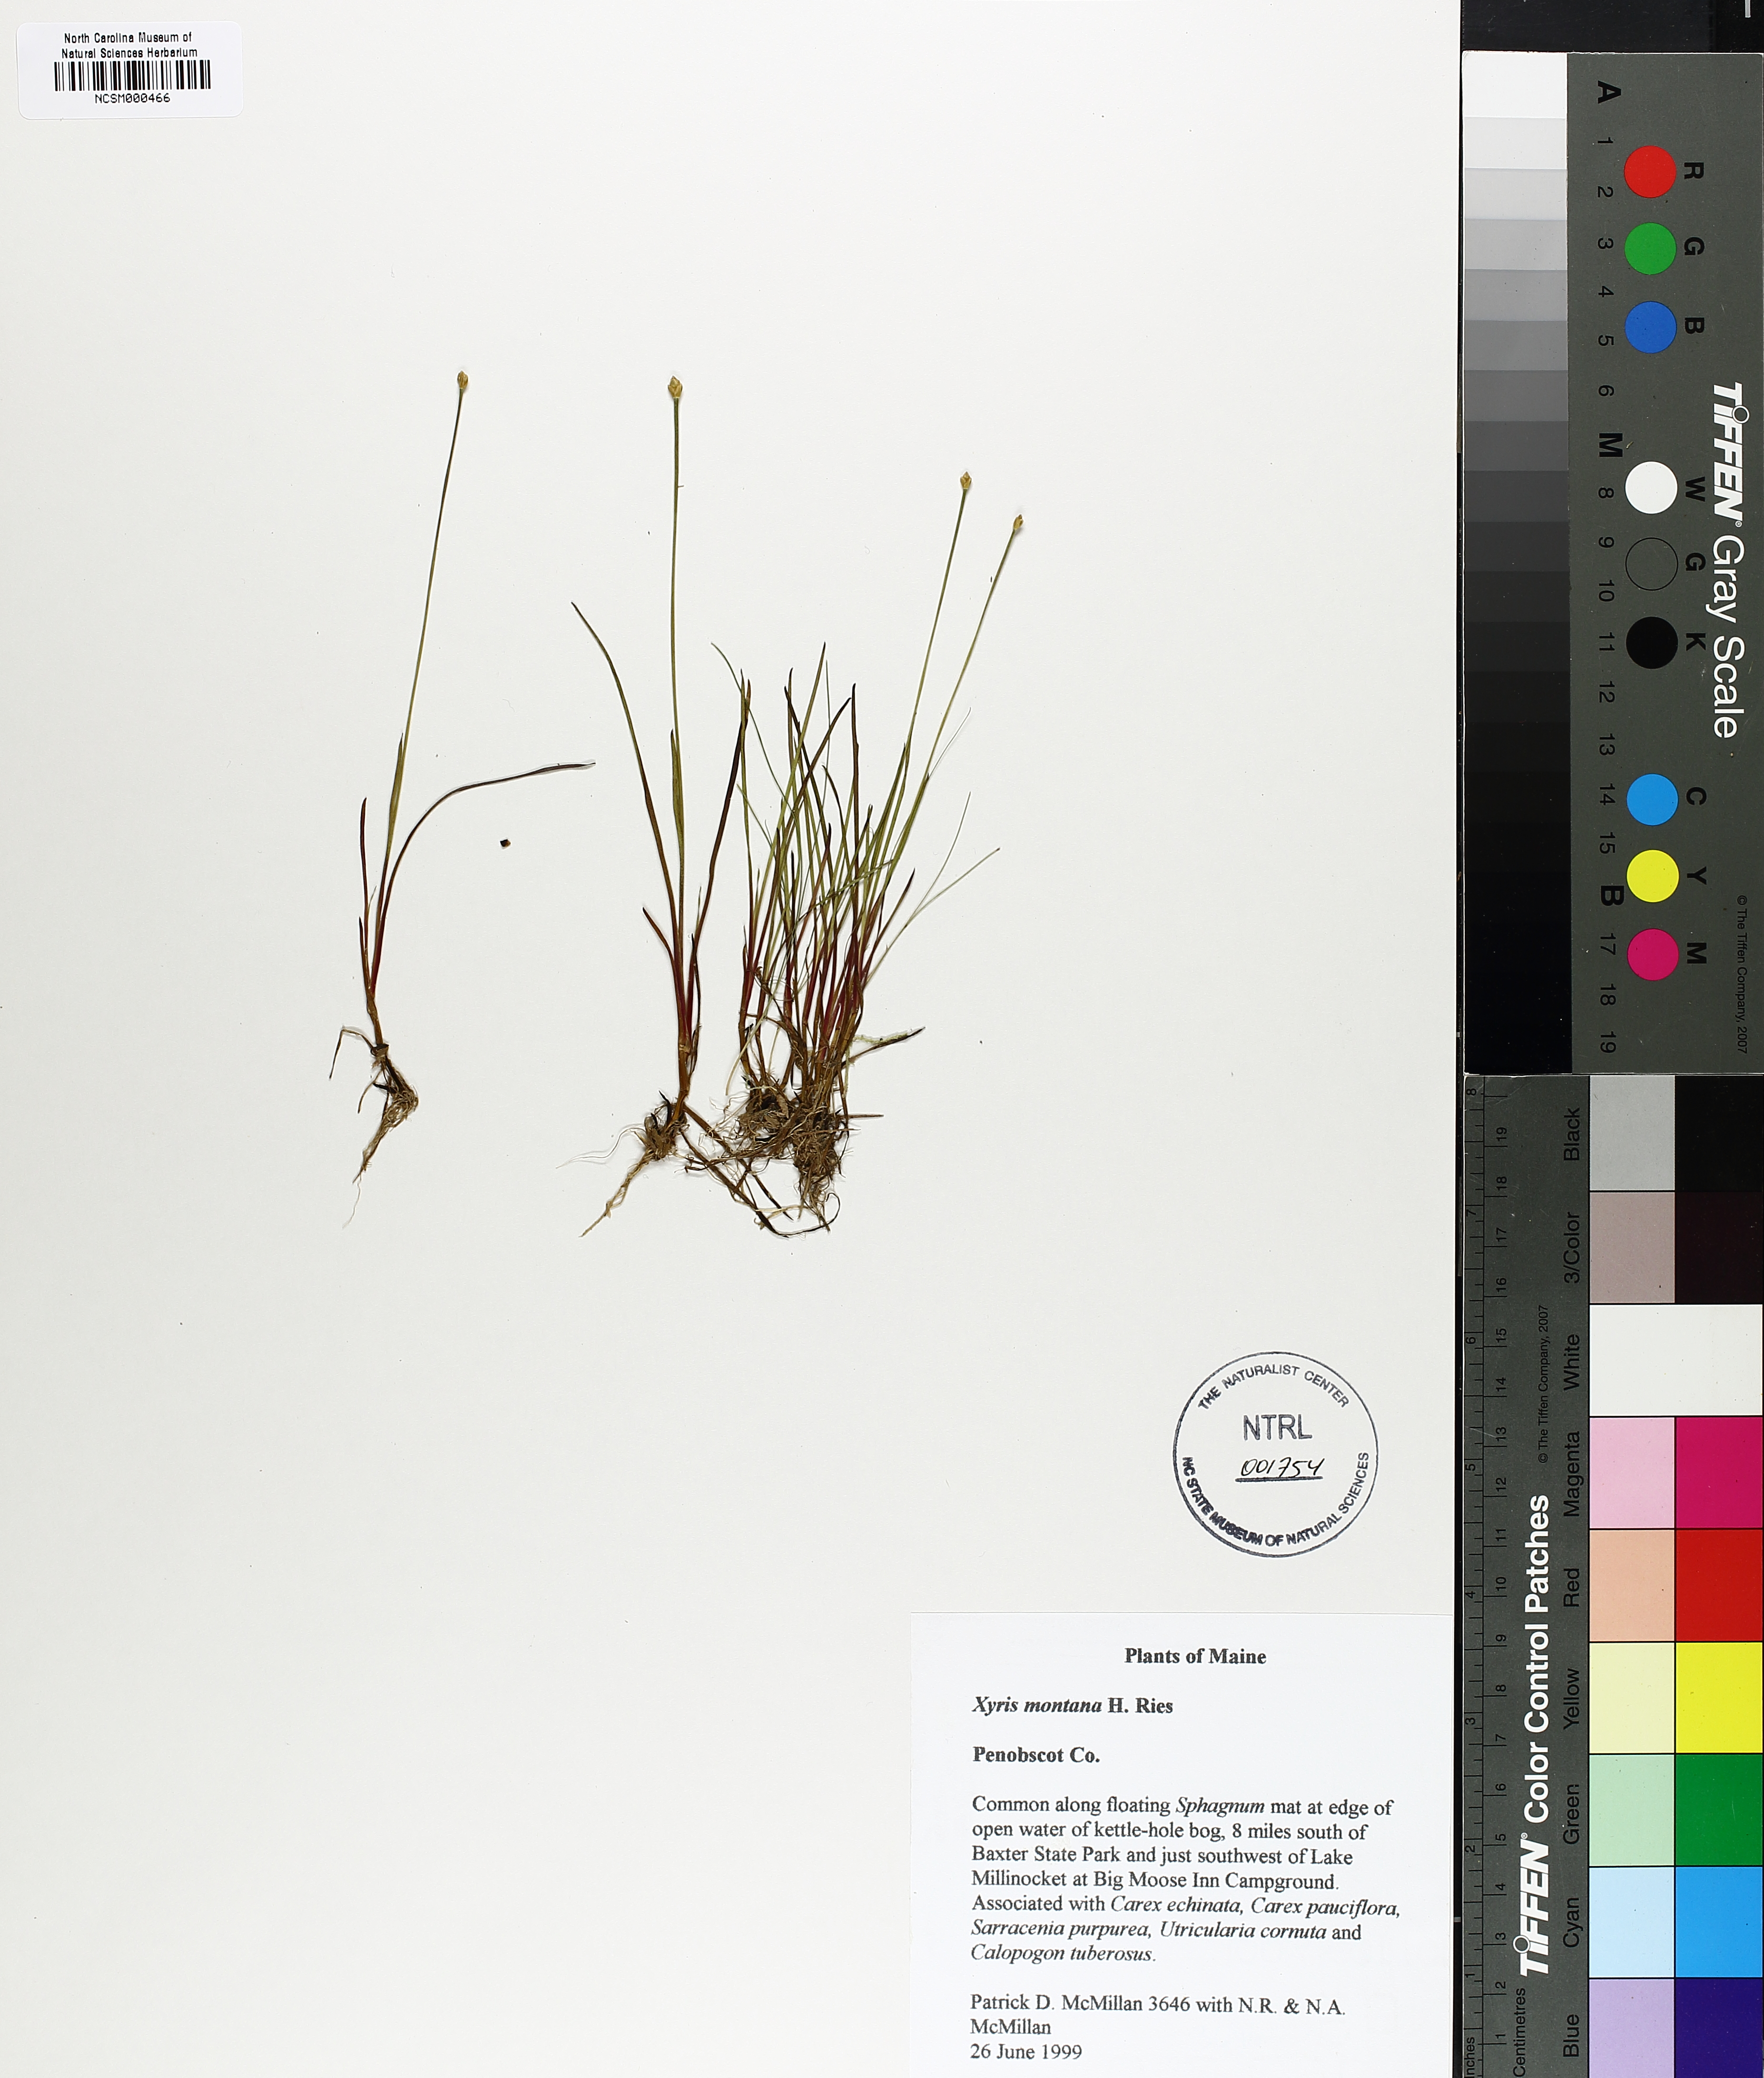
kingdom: Plantae
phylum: Tracheophyta
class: Liliopsida
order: Poales
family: Xyridaceae
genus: Xyris
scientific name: Xyris montana
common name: Northern yellow-eyed-grass
